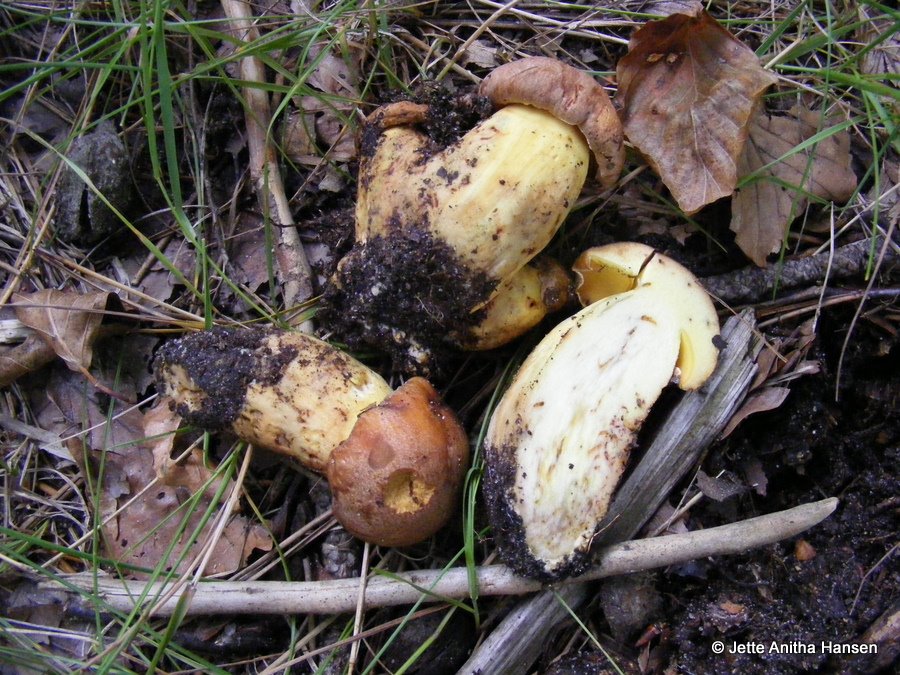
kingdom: Fungi
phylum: Basidiomycota
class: Agaricomycetes
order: Boletales
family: Boletaceae
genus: Butyriboletus
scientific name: Butyriboletus appendiculatus
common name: tenstokket rørhat
